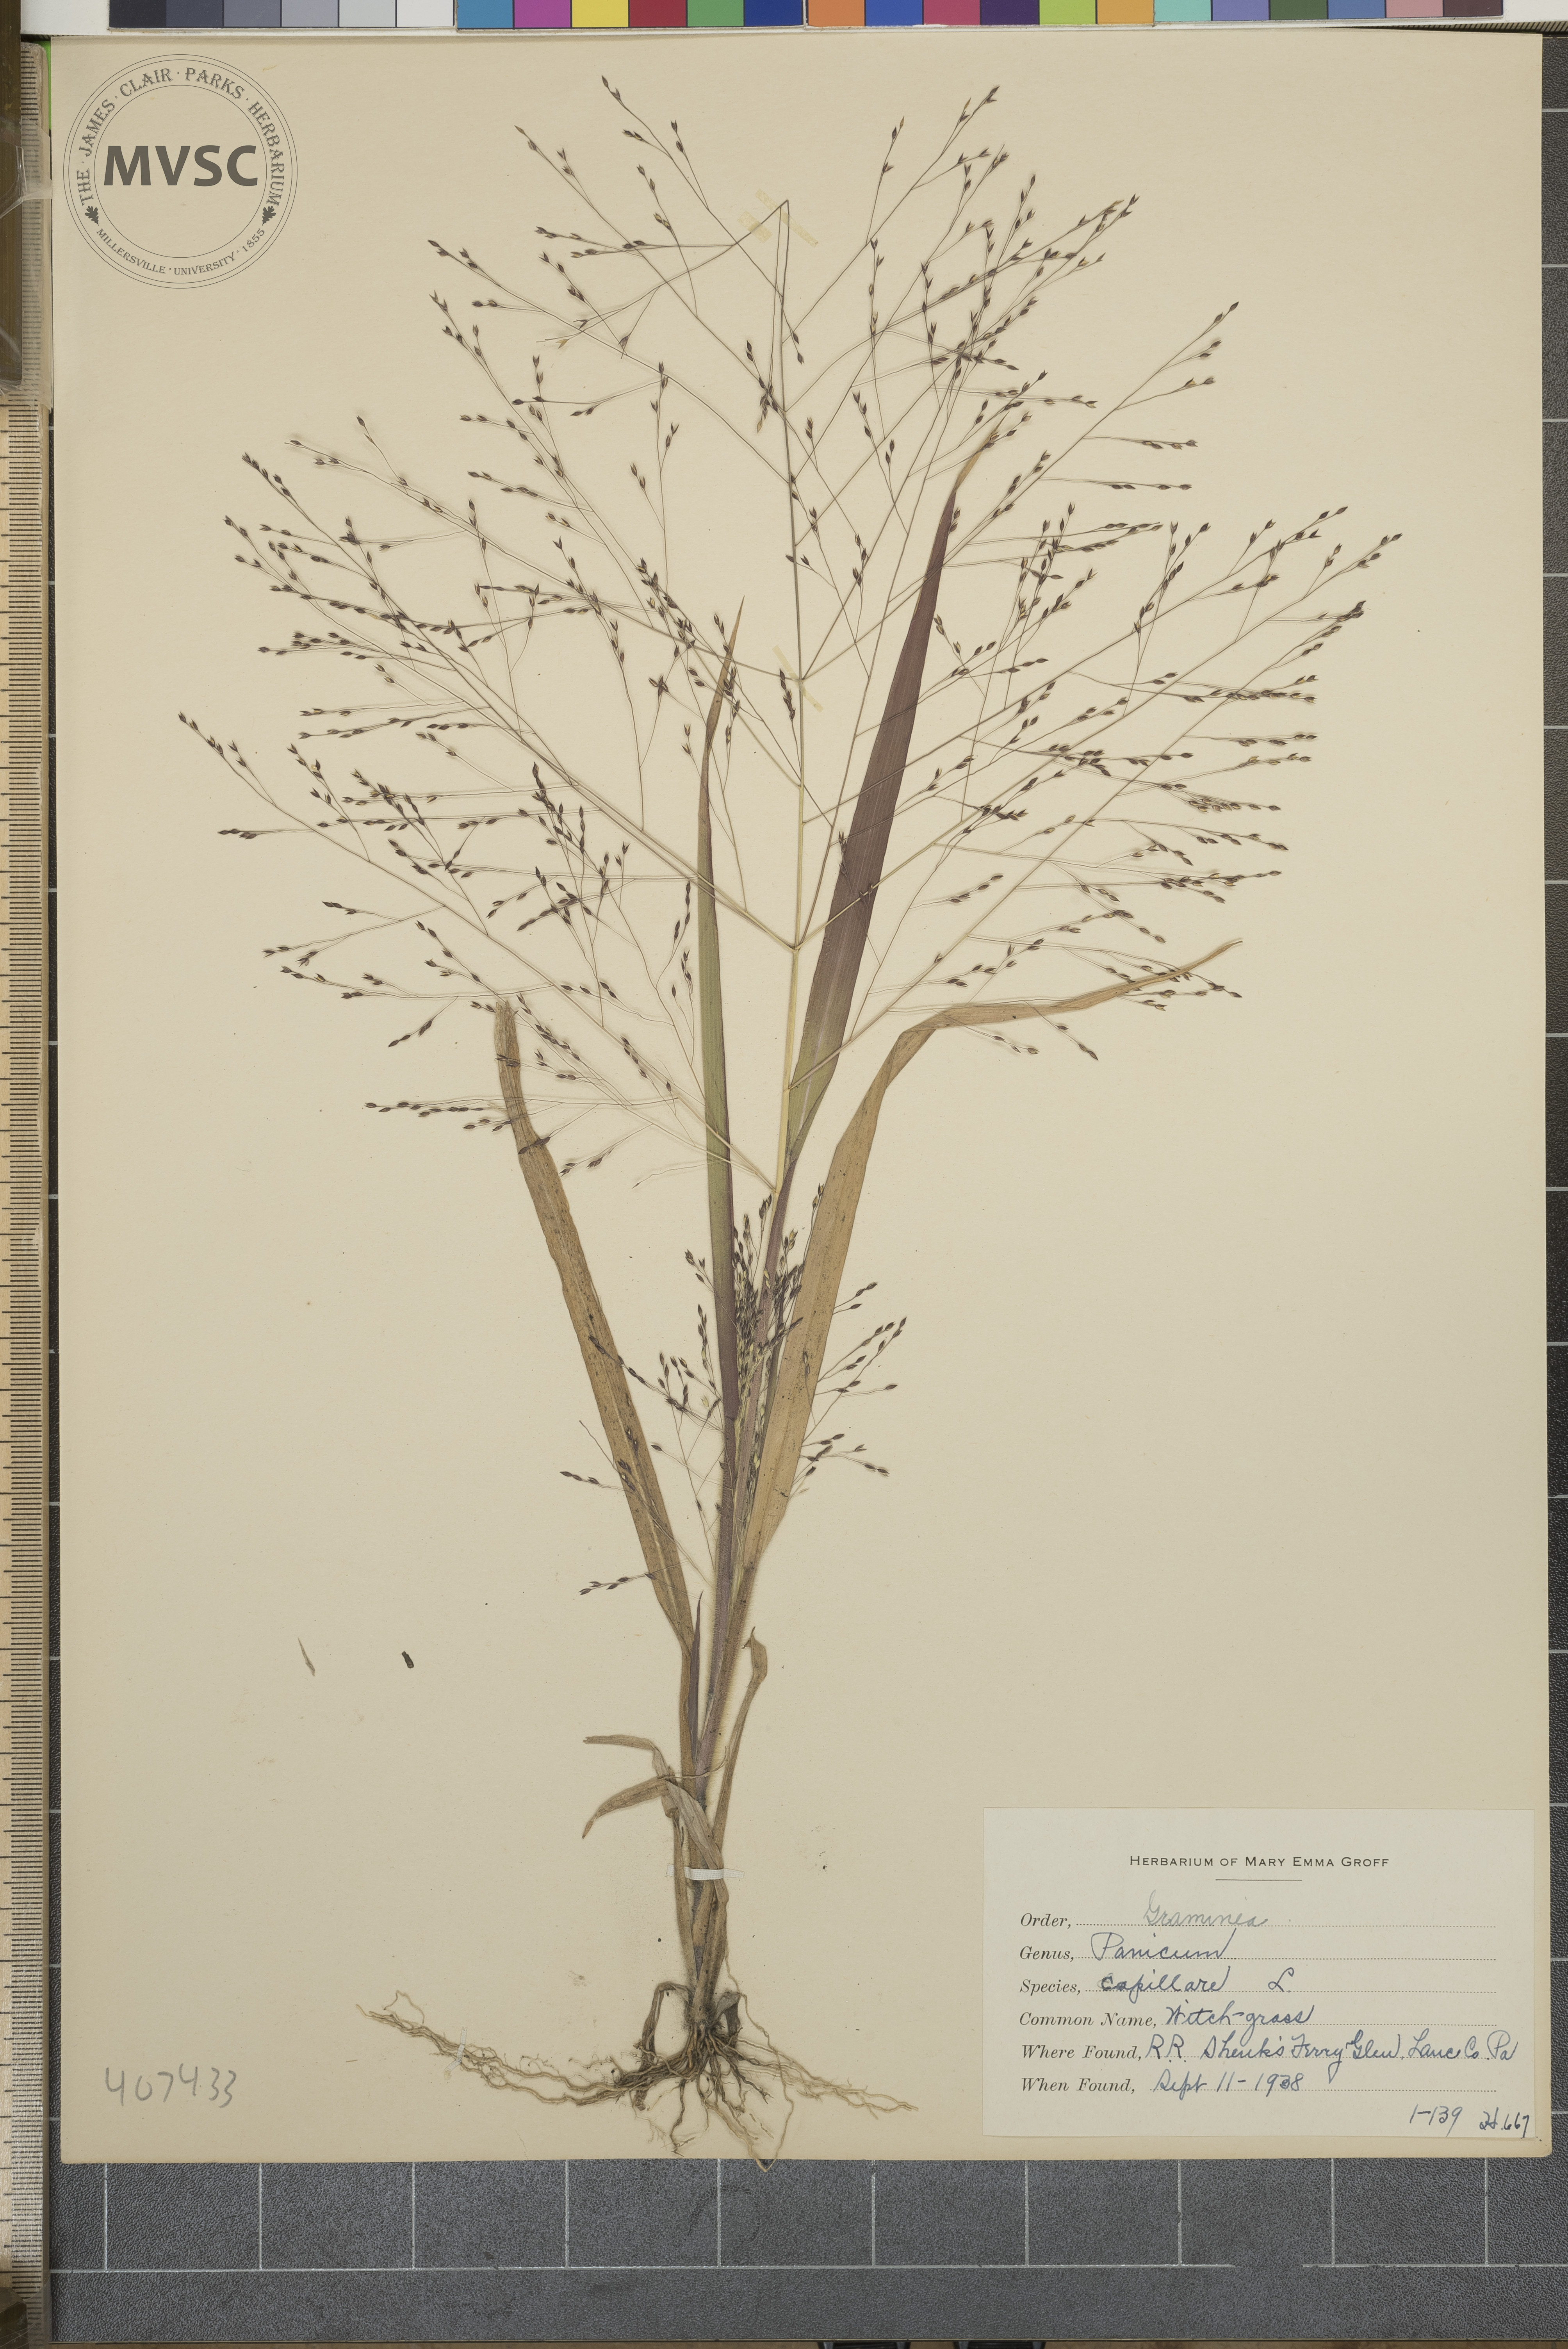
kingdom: Plantae
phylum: Tracheophyta
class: Liliopsida
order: Poales
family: Poaceae
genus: Panicum
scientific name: Panicum capillare
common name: Witch-grass
